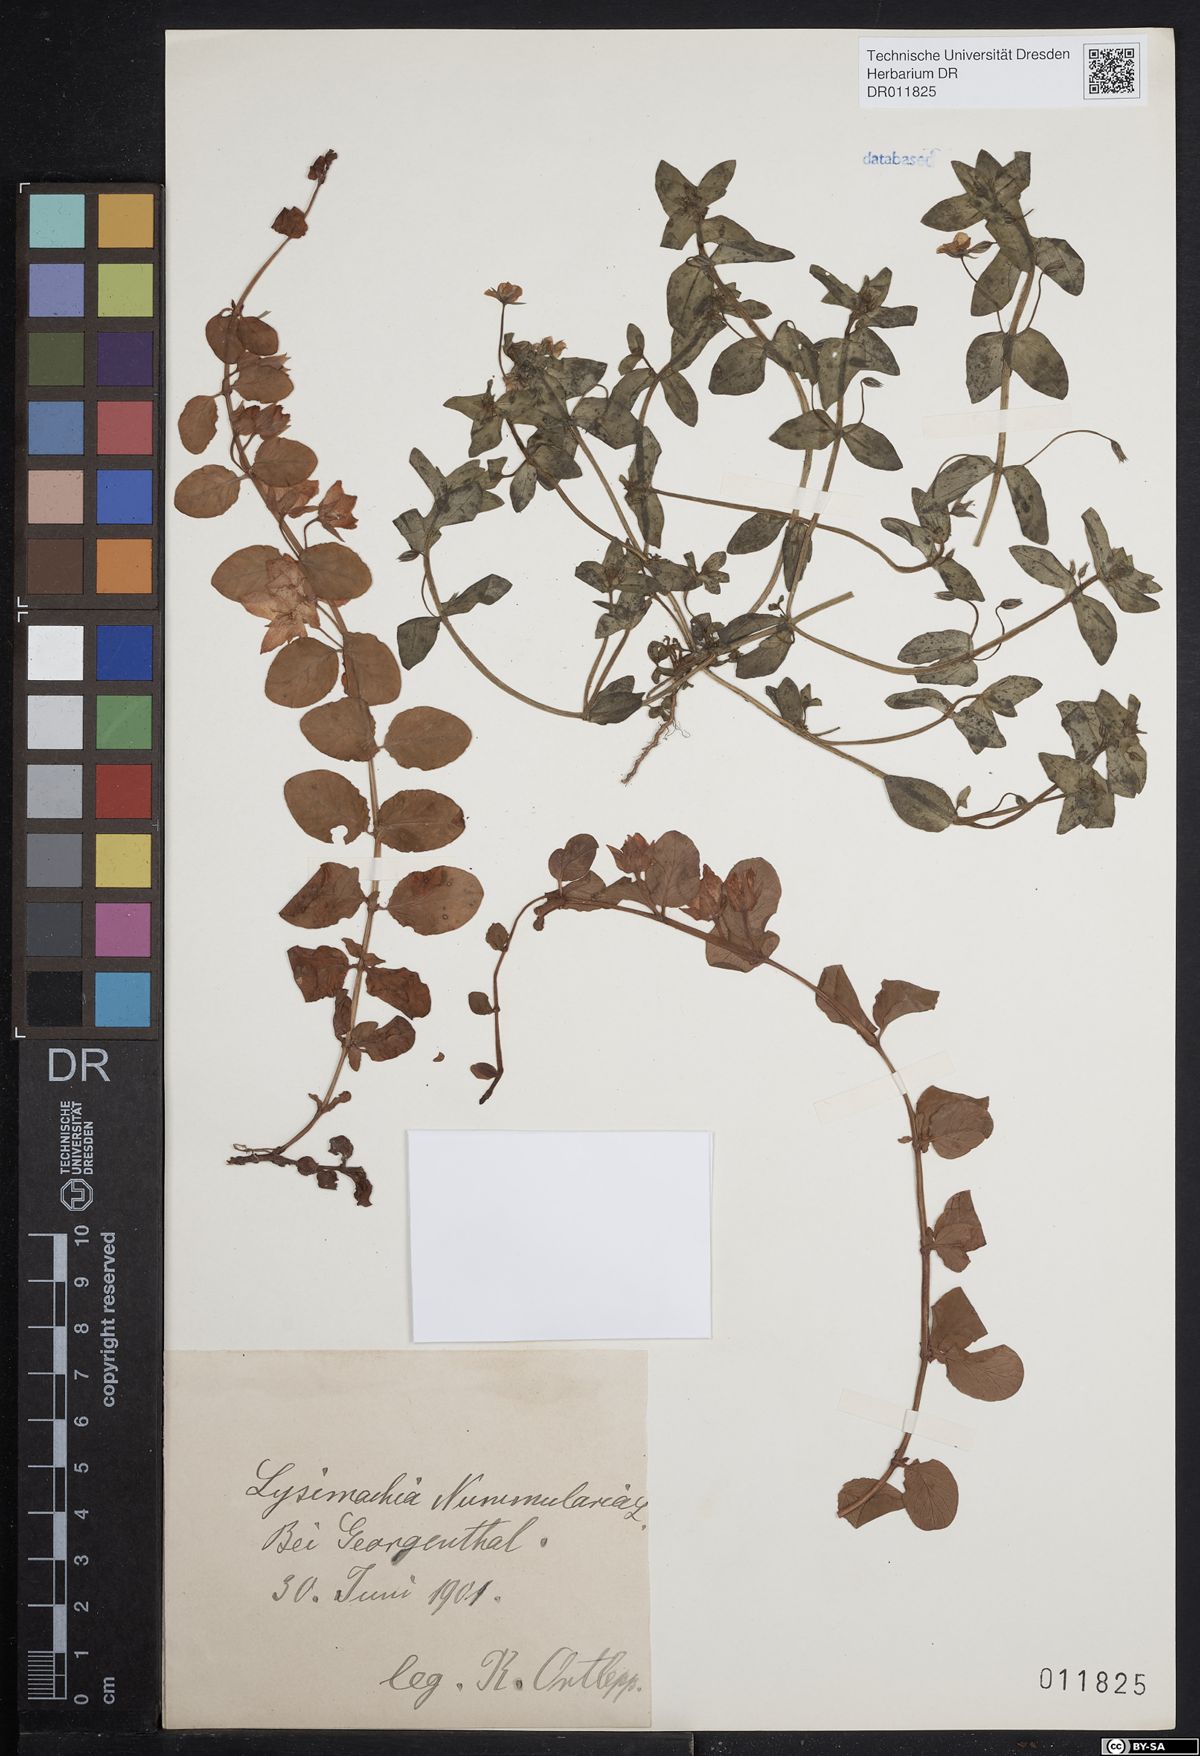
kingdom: Plantae
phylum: Tracheophyta
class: Magnoliopsida
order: Ericales
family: Primulaceae
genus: Lysimachia
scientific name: Lysimachia nummularia
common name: Moneywort
